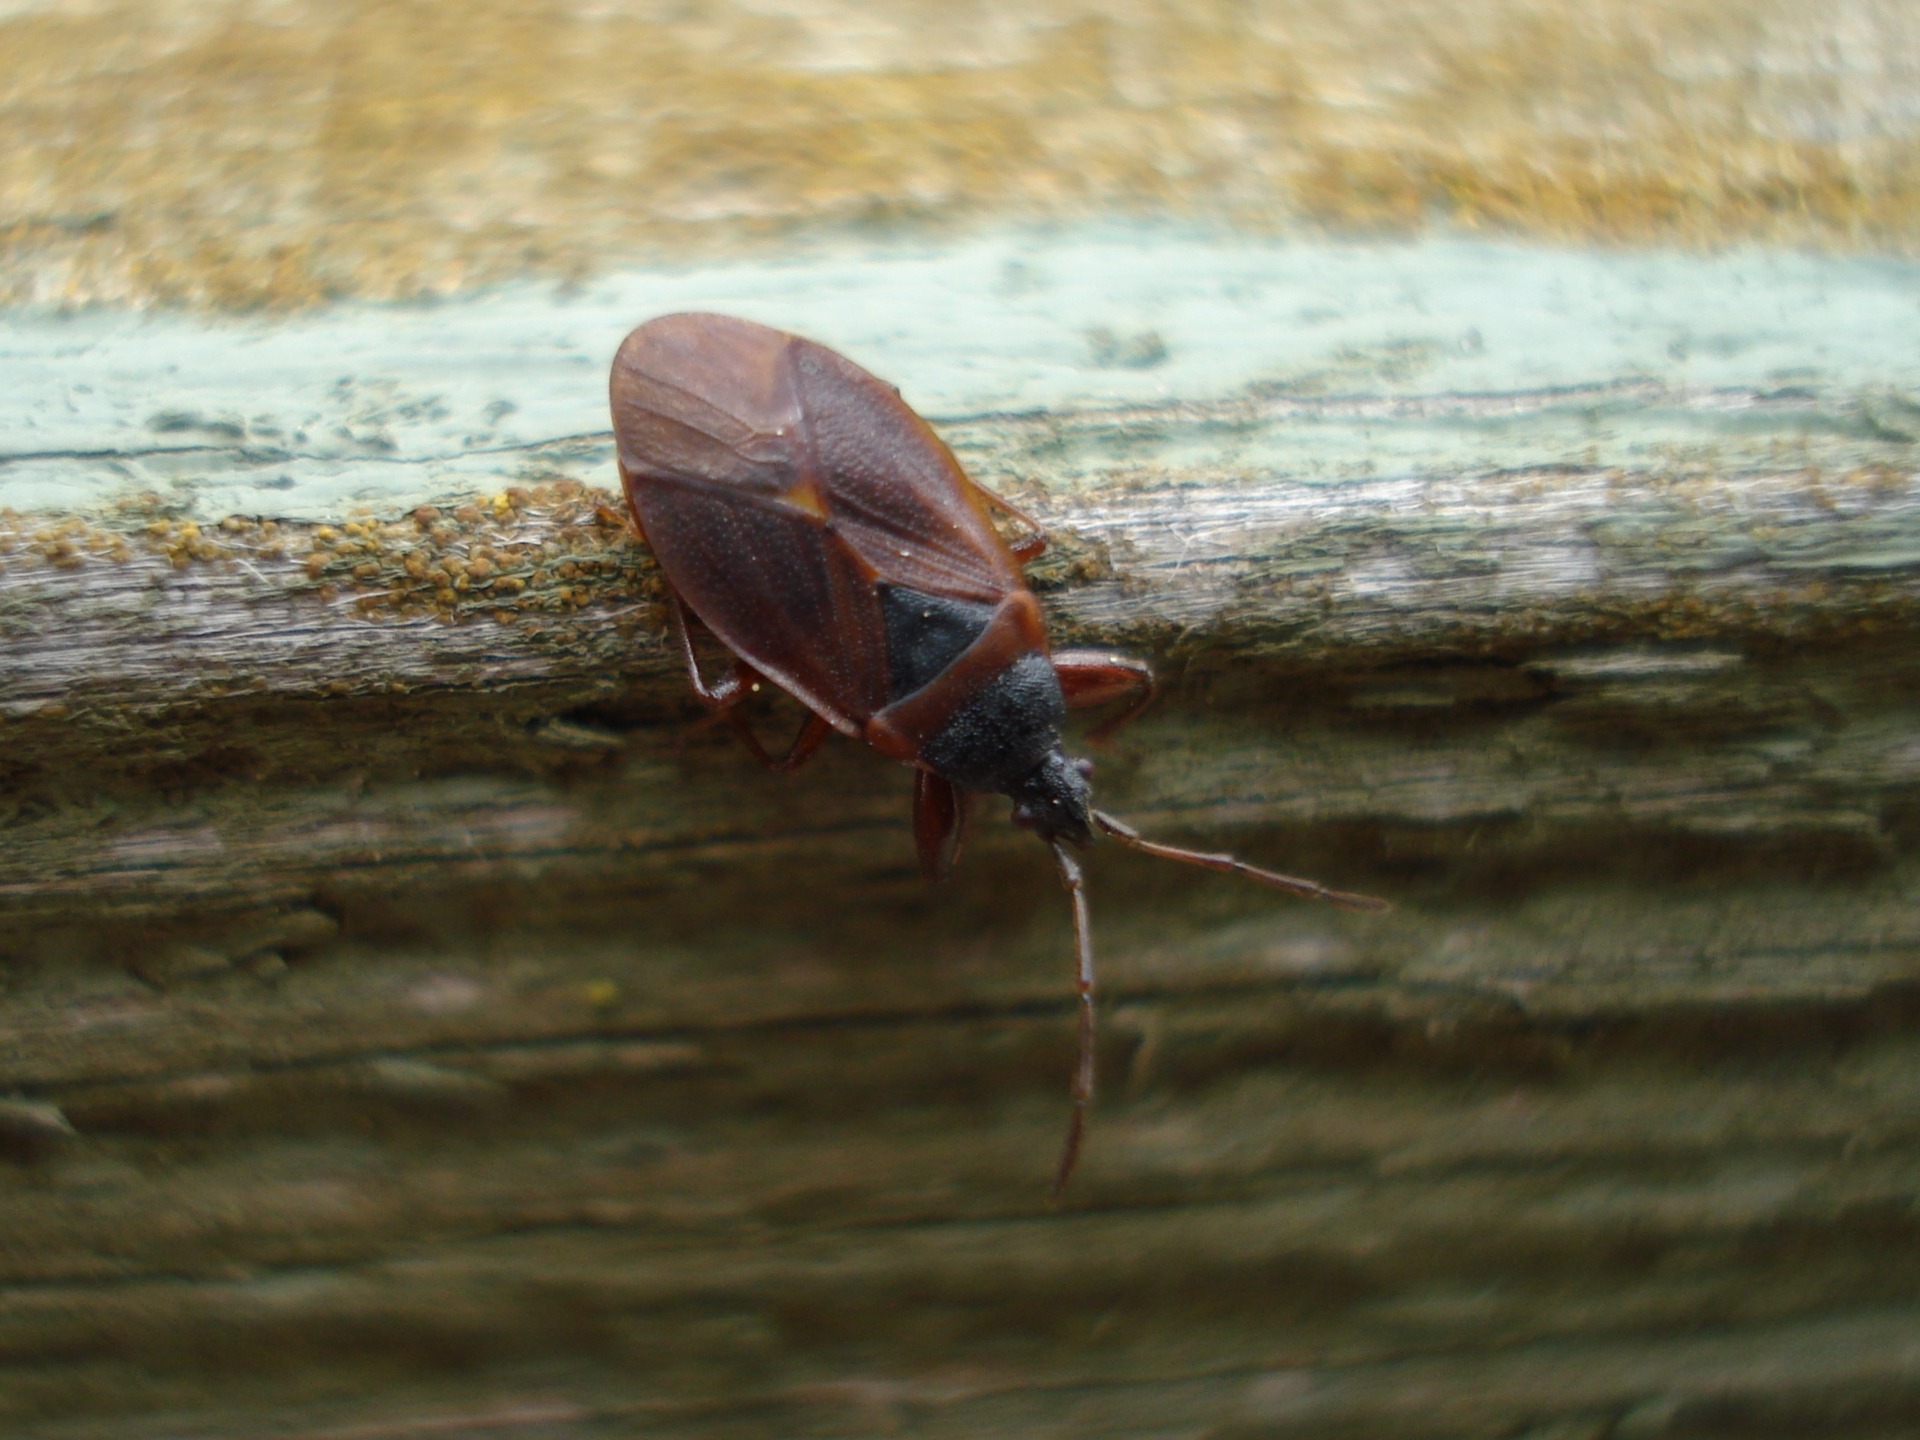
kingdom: Animalia
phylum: Arthropoda
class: Insecta
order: Hemiptera
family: Rhyparochromidae
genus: Gastrodes
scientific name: Gastrodes grossipes
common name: Fyrrekogletæge
